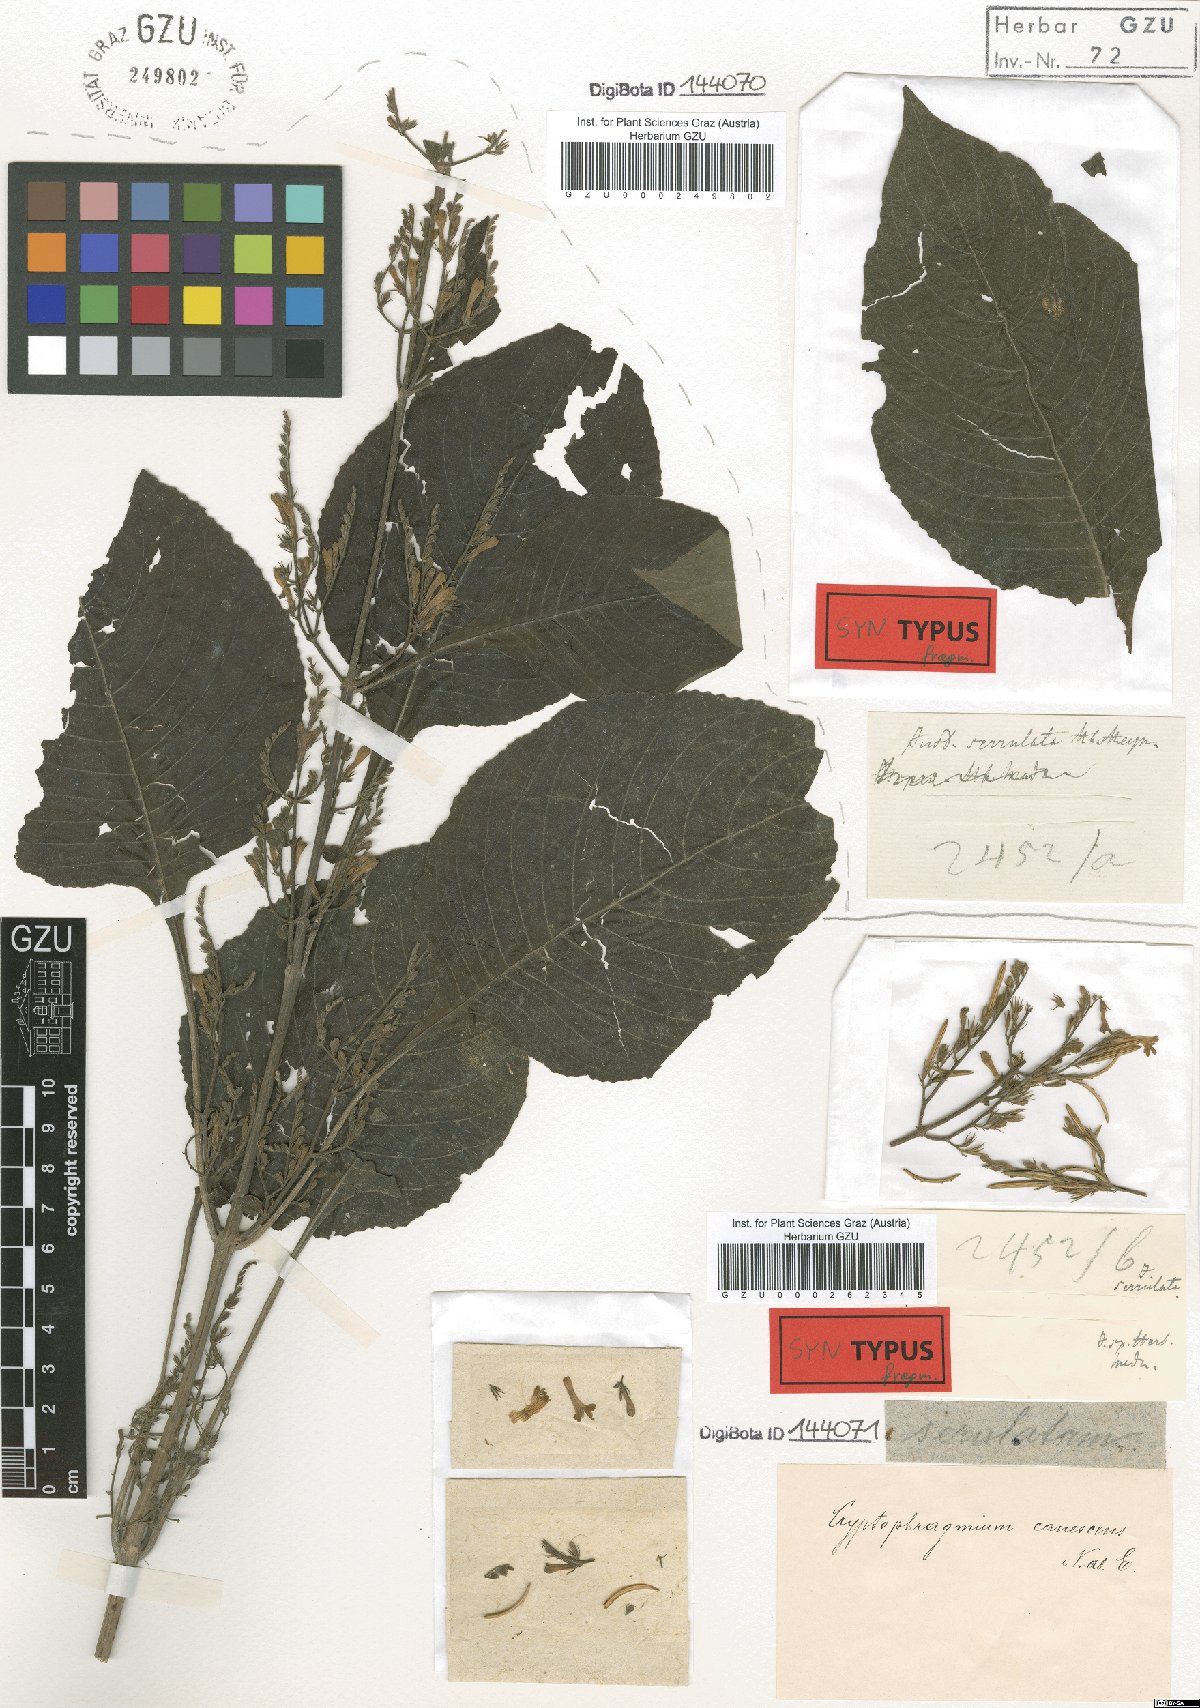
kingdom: Plantae
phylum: Tracheophyta
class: Magnoliopsida
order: Lamiales
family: Acanthaceae
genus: Gymnostachyum
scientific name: Gymnostachyum pubescens
